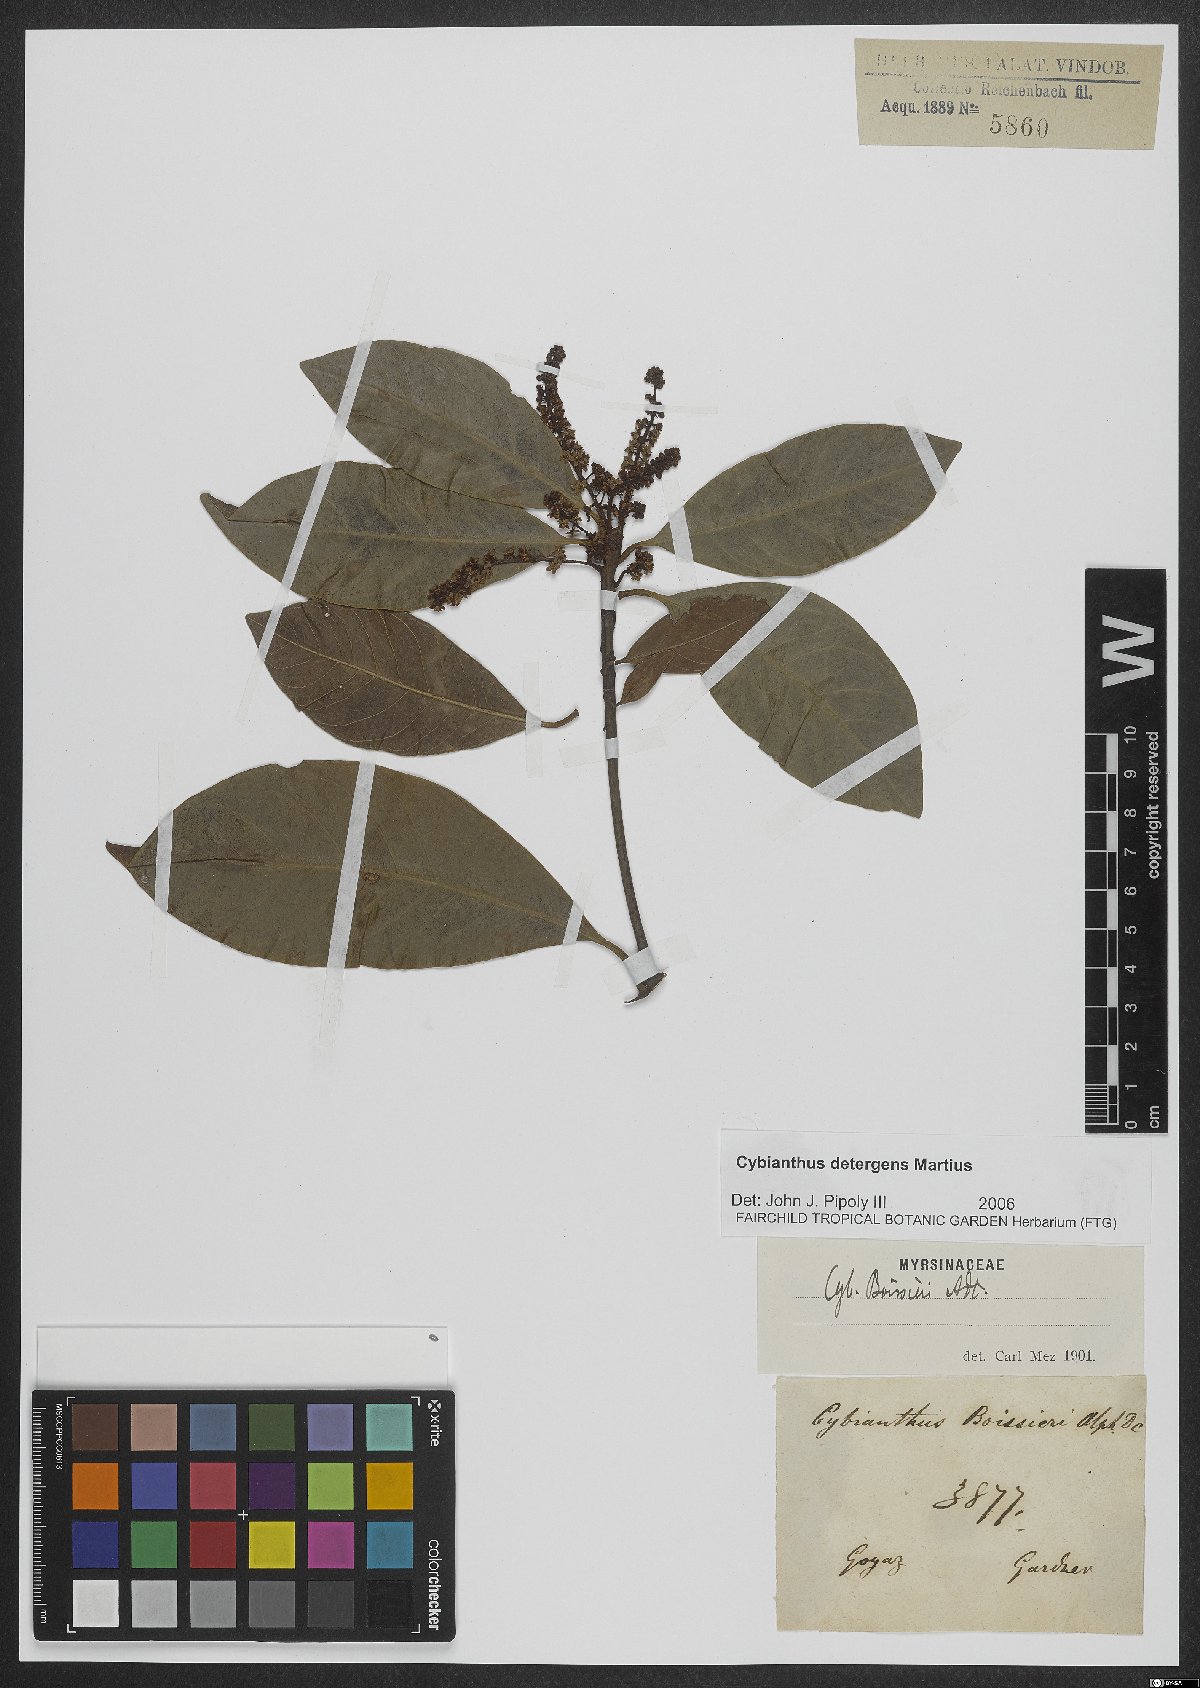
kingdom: Plantae
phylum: Tracheophyta
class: Magnoliopsida
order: Ericales
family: Primulaceae
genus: Cybianthus
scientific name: Cybianthus detergens
